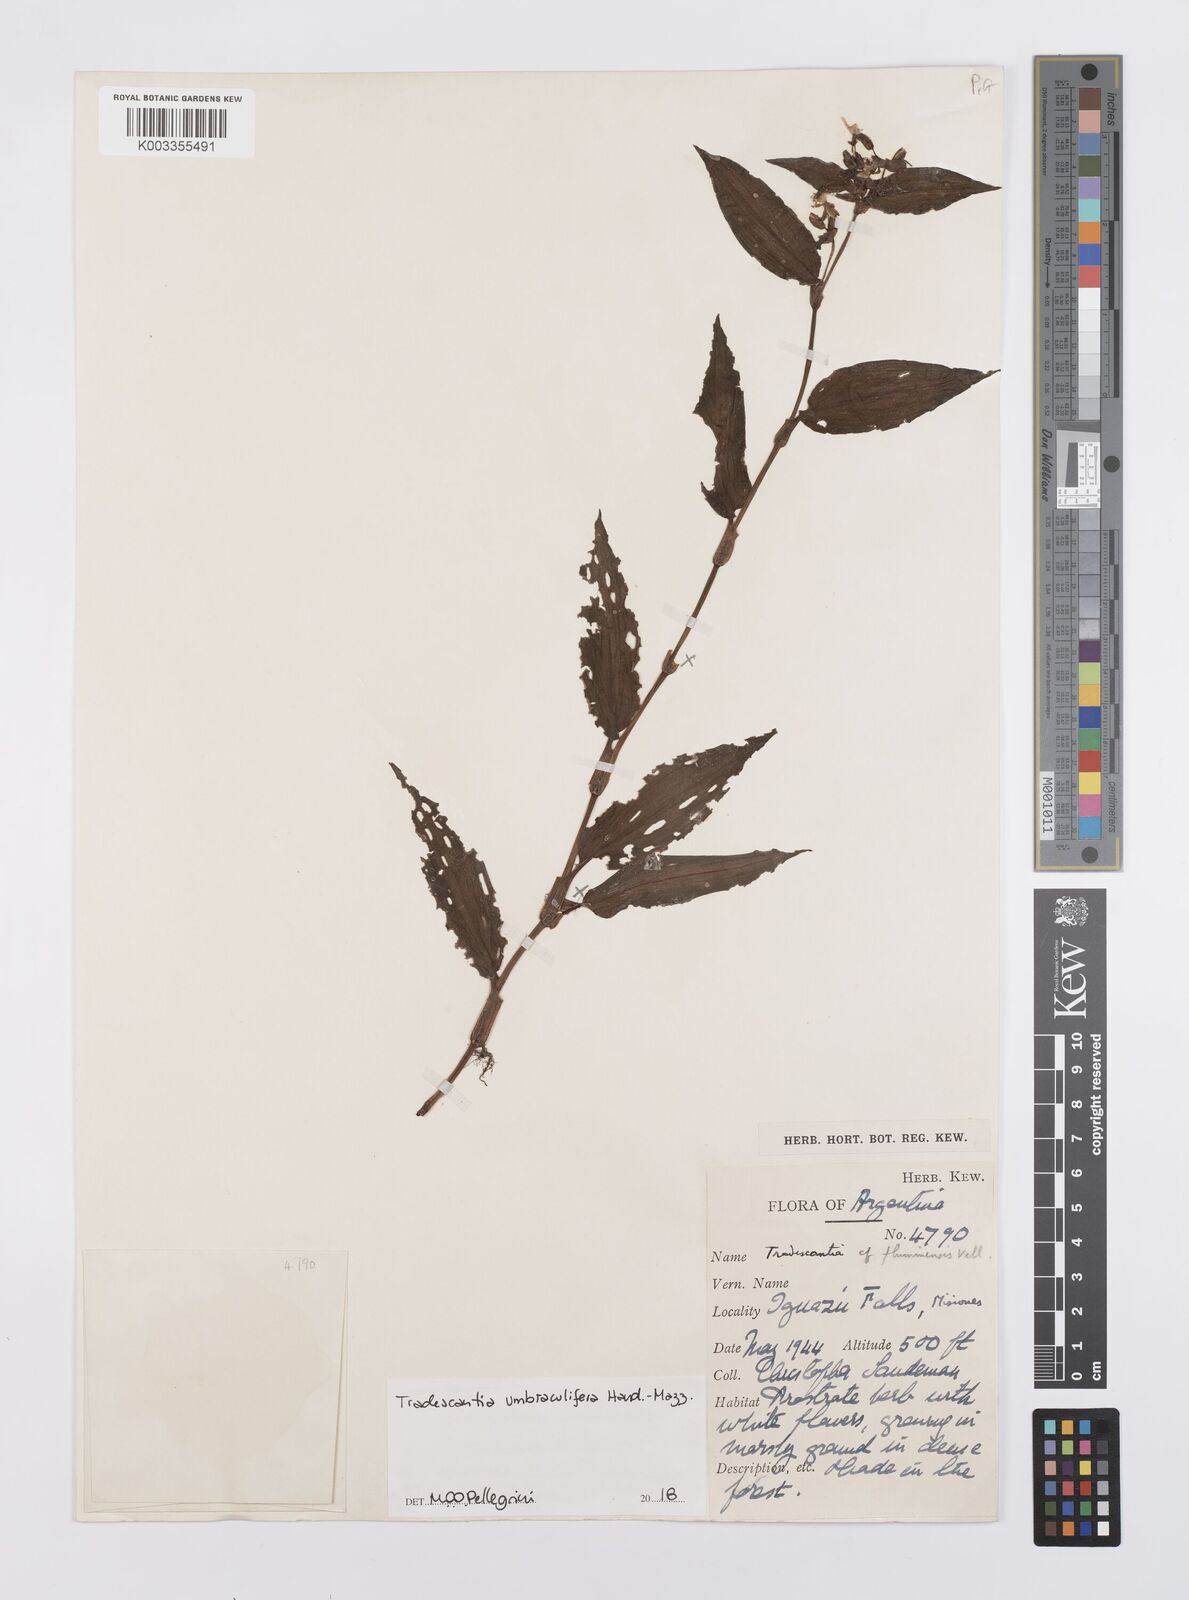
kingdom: Plantae
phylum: Tracheophyta
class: Liliopsida
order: Commelinales
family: Commelinaceae
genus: Tradescantia
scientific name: Tradescantia umbraculifera
